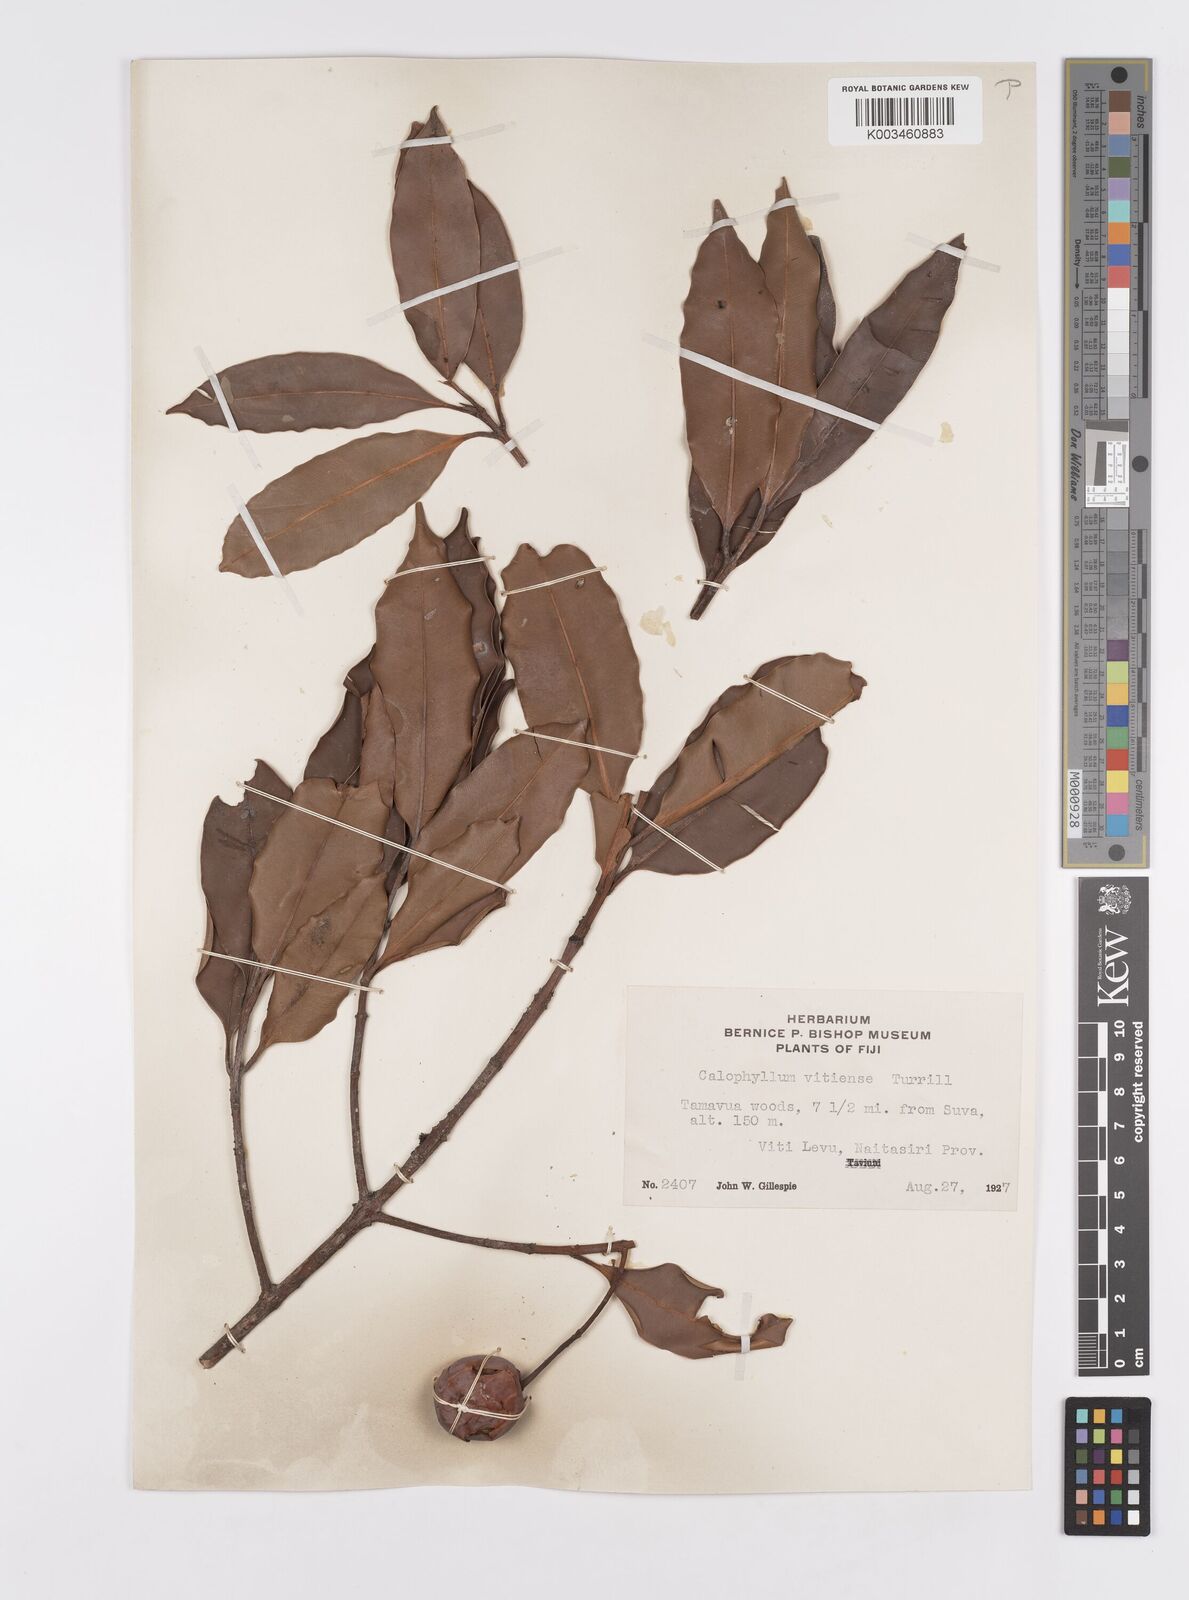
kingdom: Plantae
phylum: Tracheophyta
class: Magnoliopsida
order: Malpighiales
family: Calophyllaceae
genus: Calophyllum
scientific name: Calophyllum vitiense
